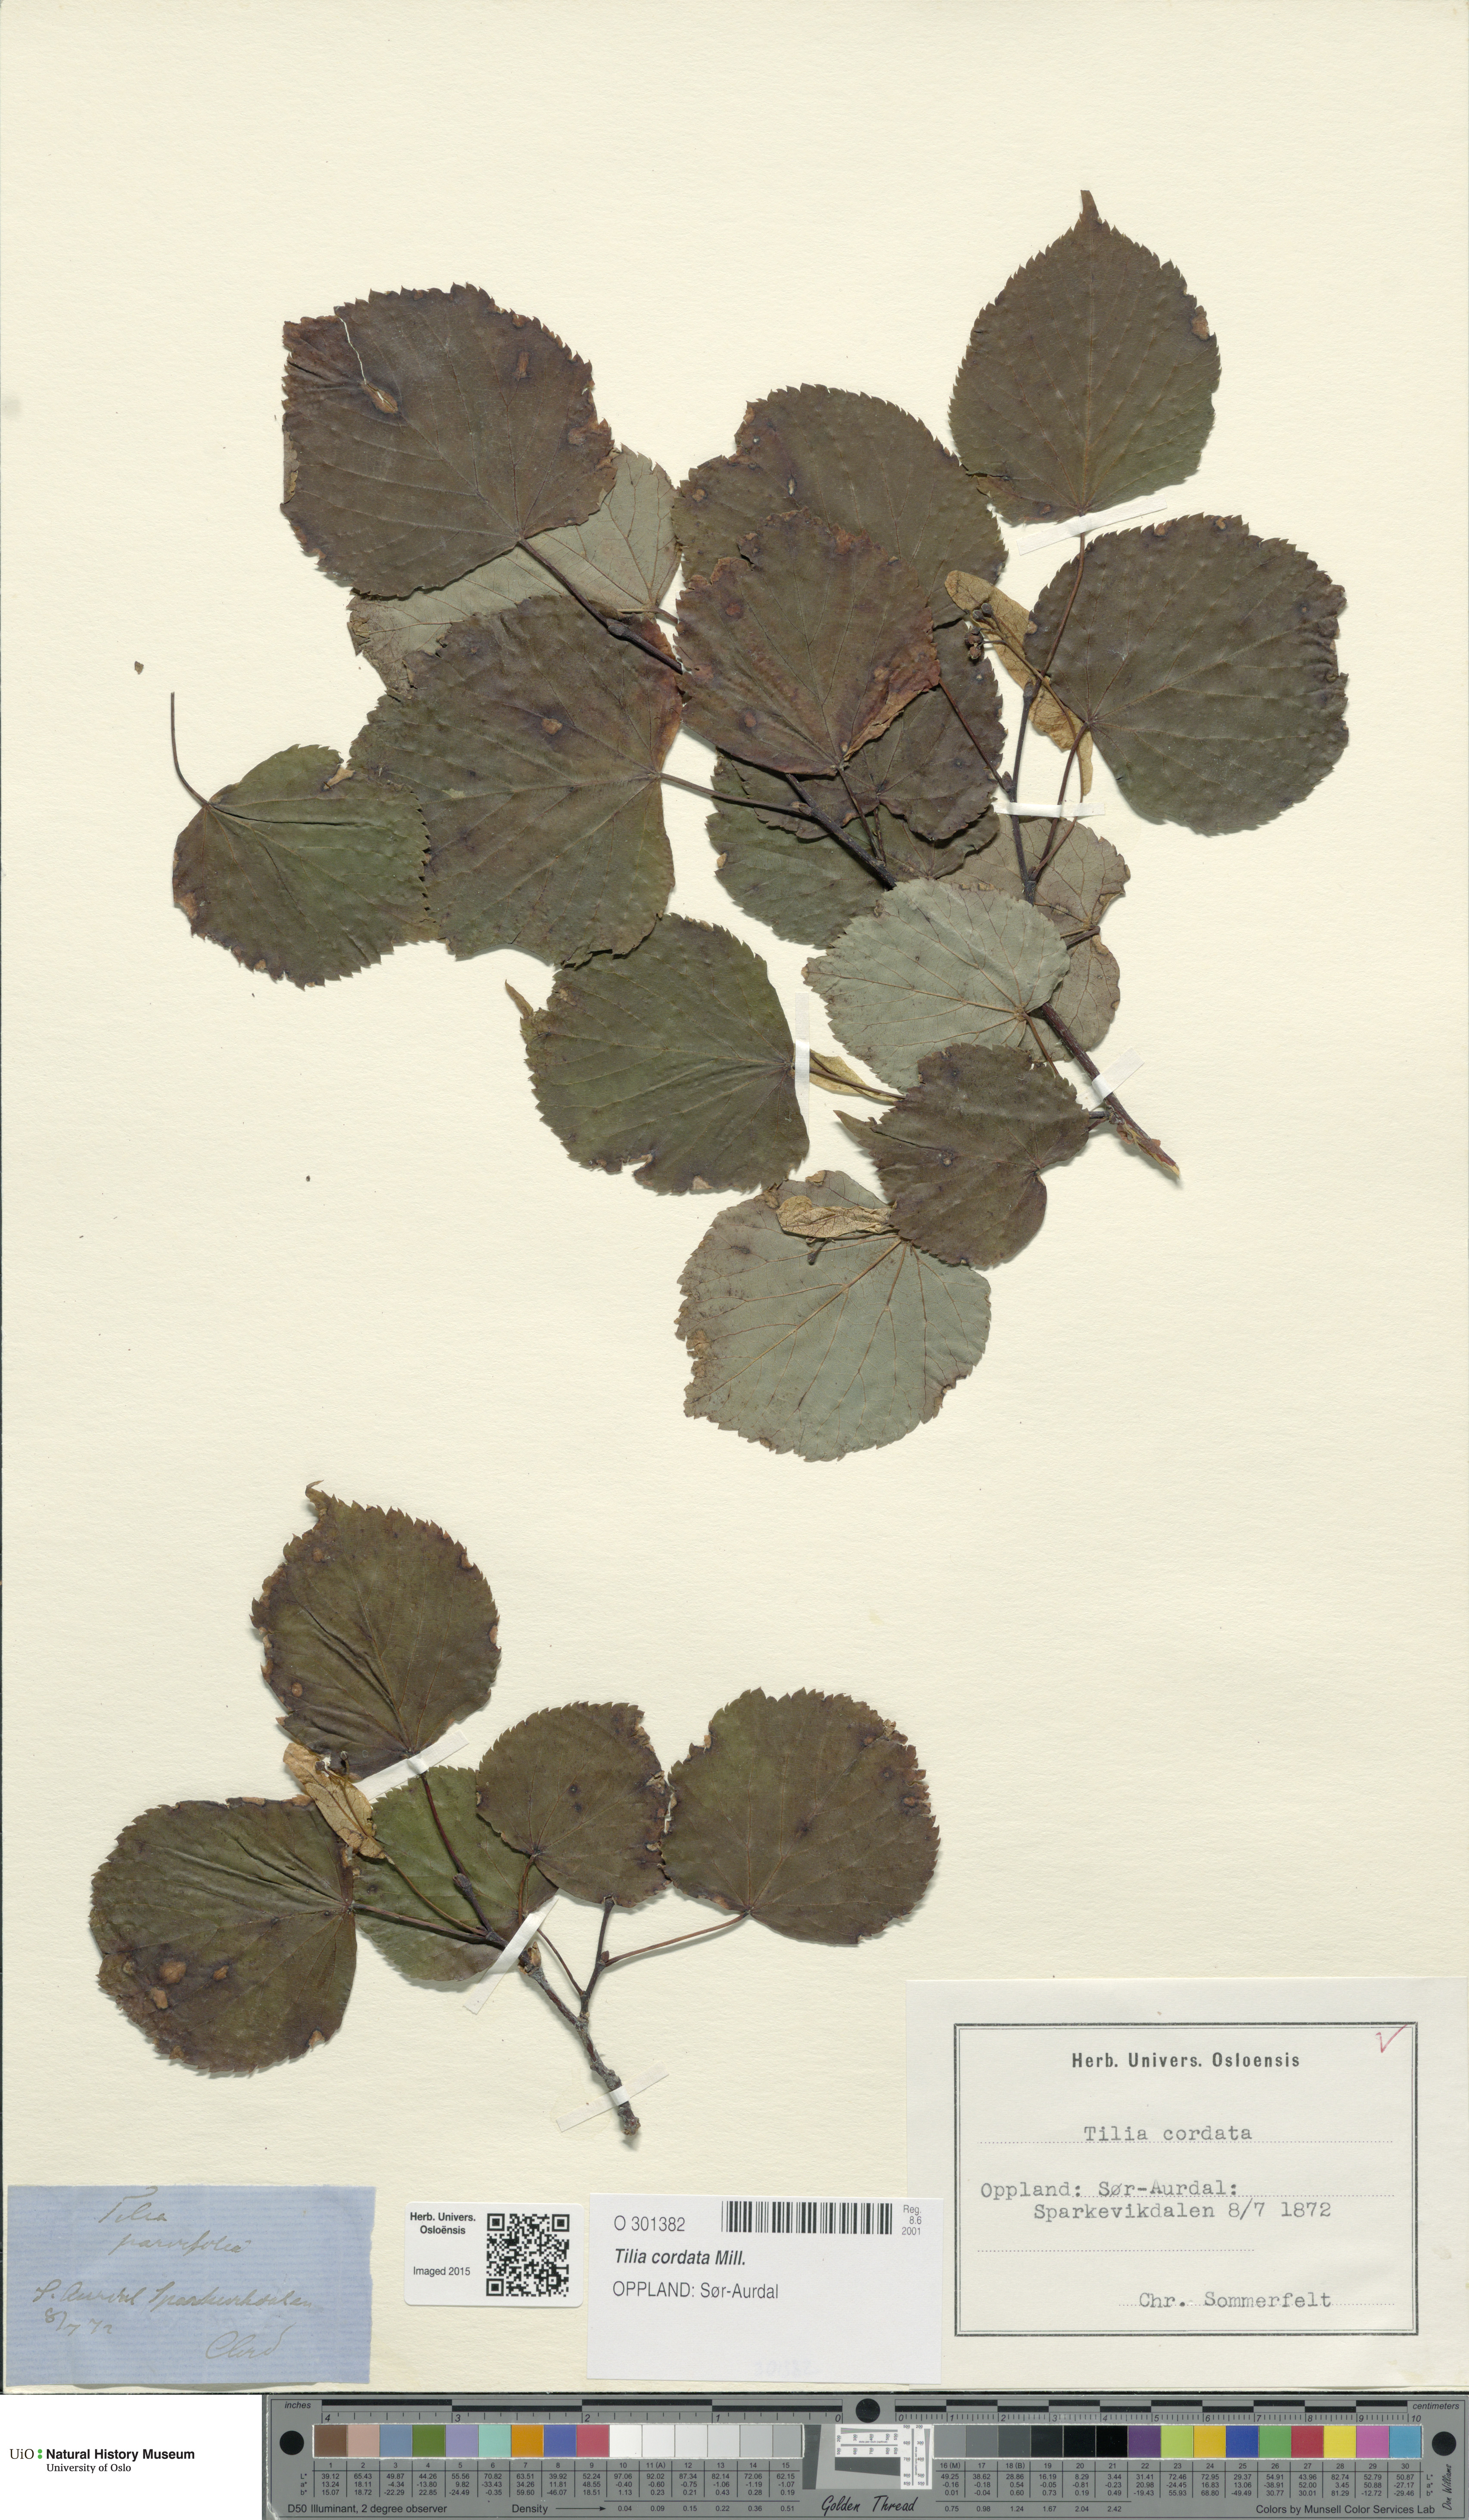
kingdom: Plantae
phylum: Tracheophyta
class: Magnoliopsida
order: Malvales
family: Malvaceae
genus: Tilia
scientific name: Tilia cordata
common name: Small-leaved lime
